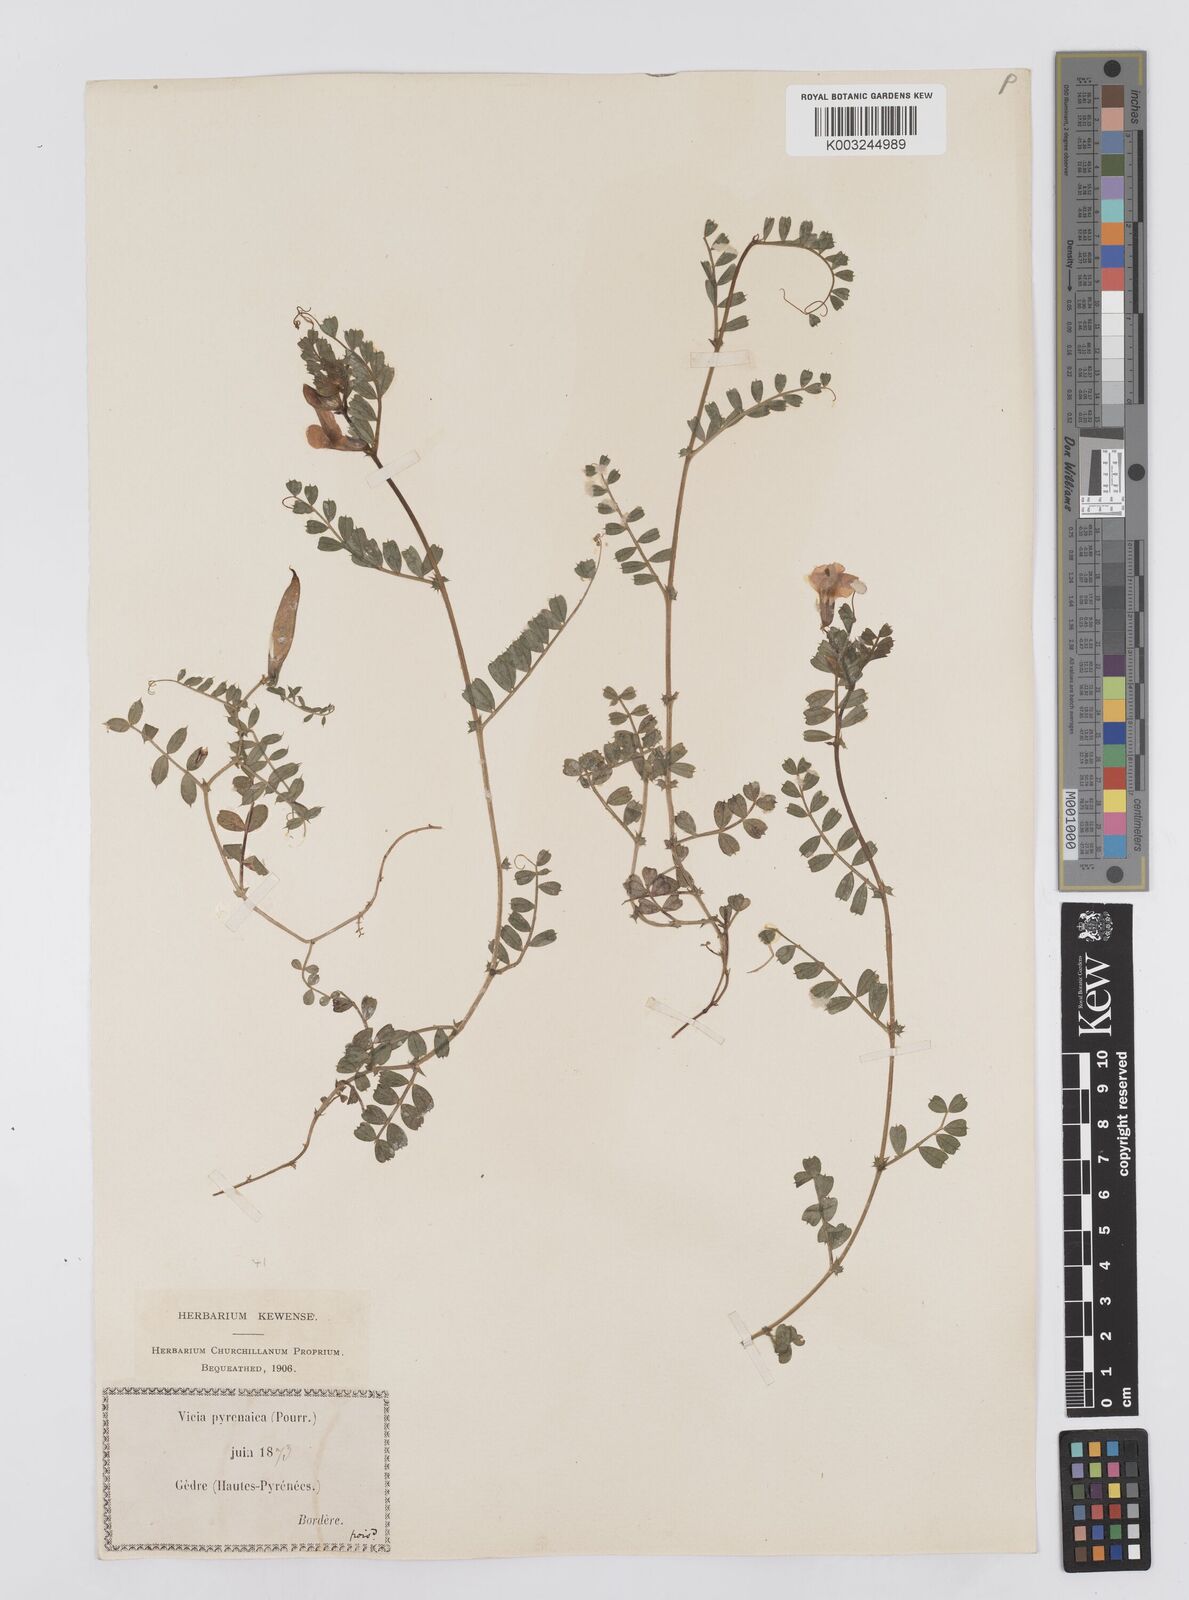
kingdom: Plantae
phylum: Tracheophyta
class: Magnoliopsida
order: Fabales
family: Fabaceae
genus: Vicia
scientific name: Vicia pyrenaica
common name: Pyrenean vetch
